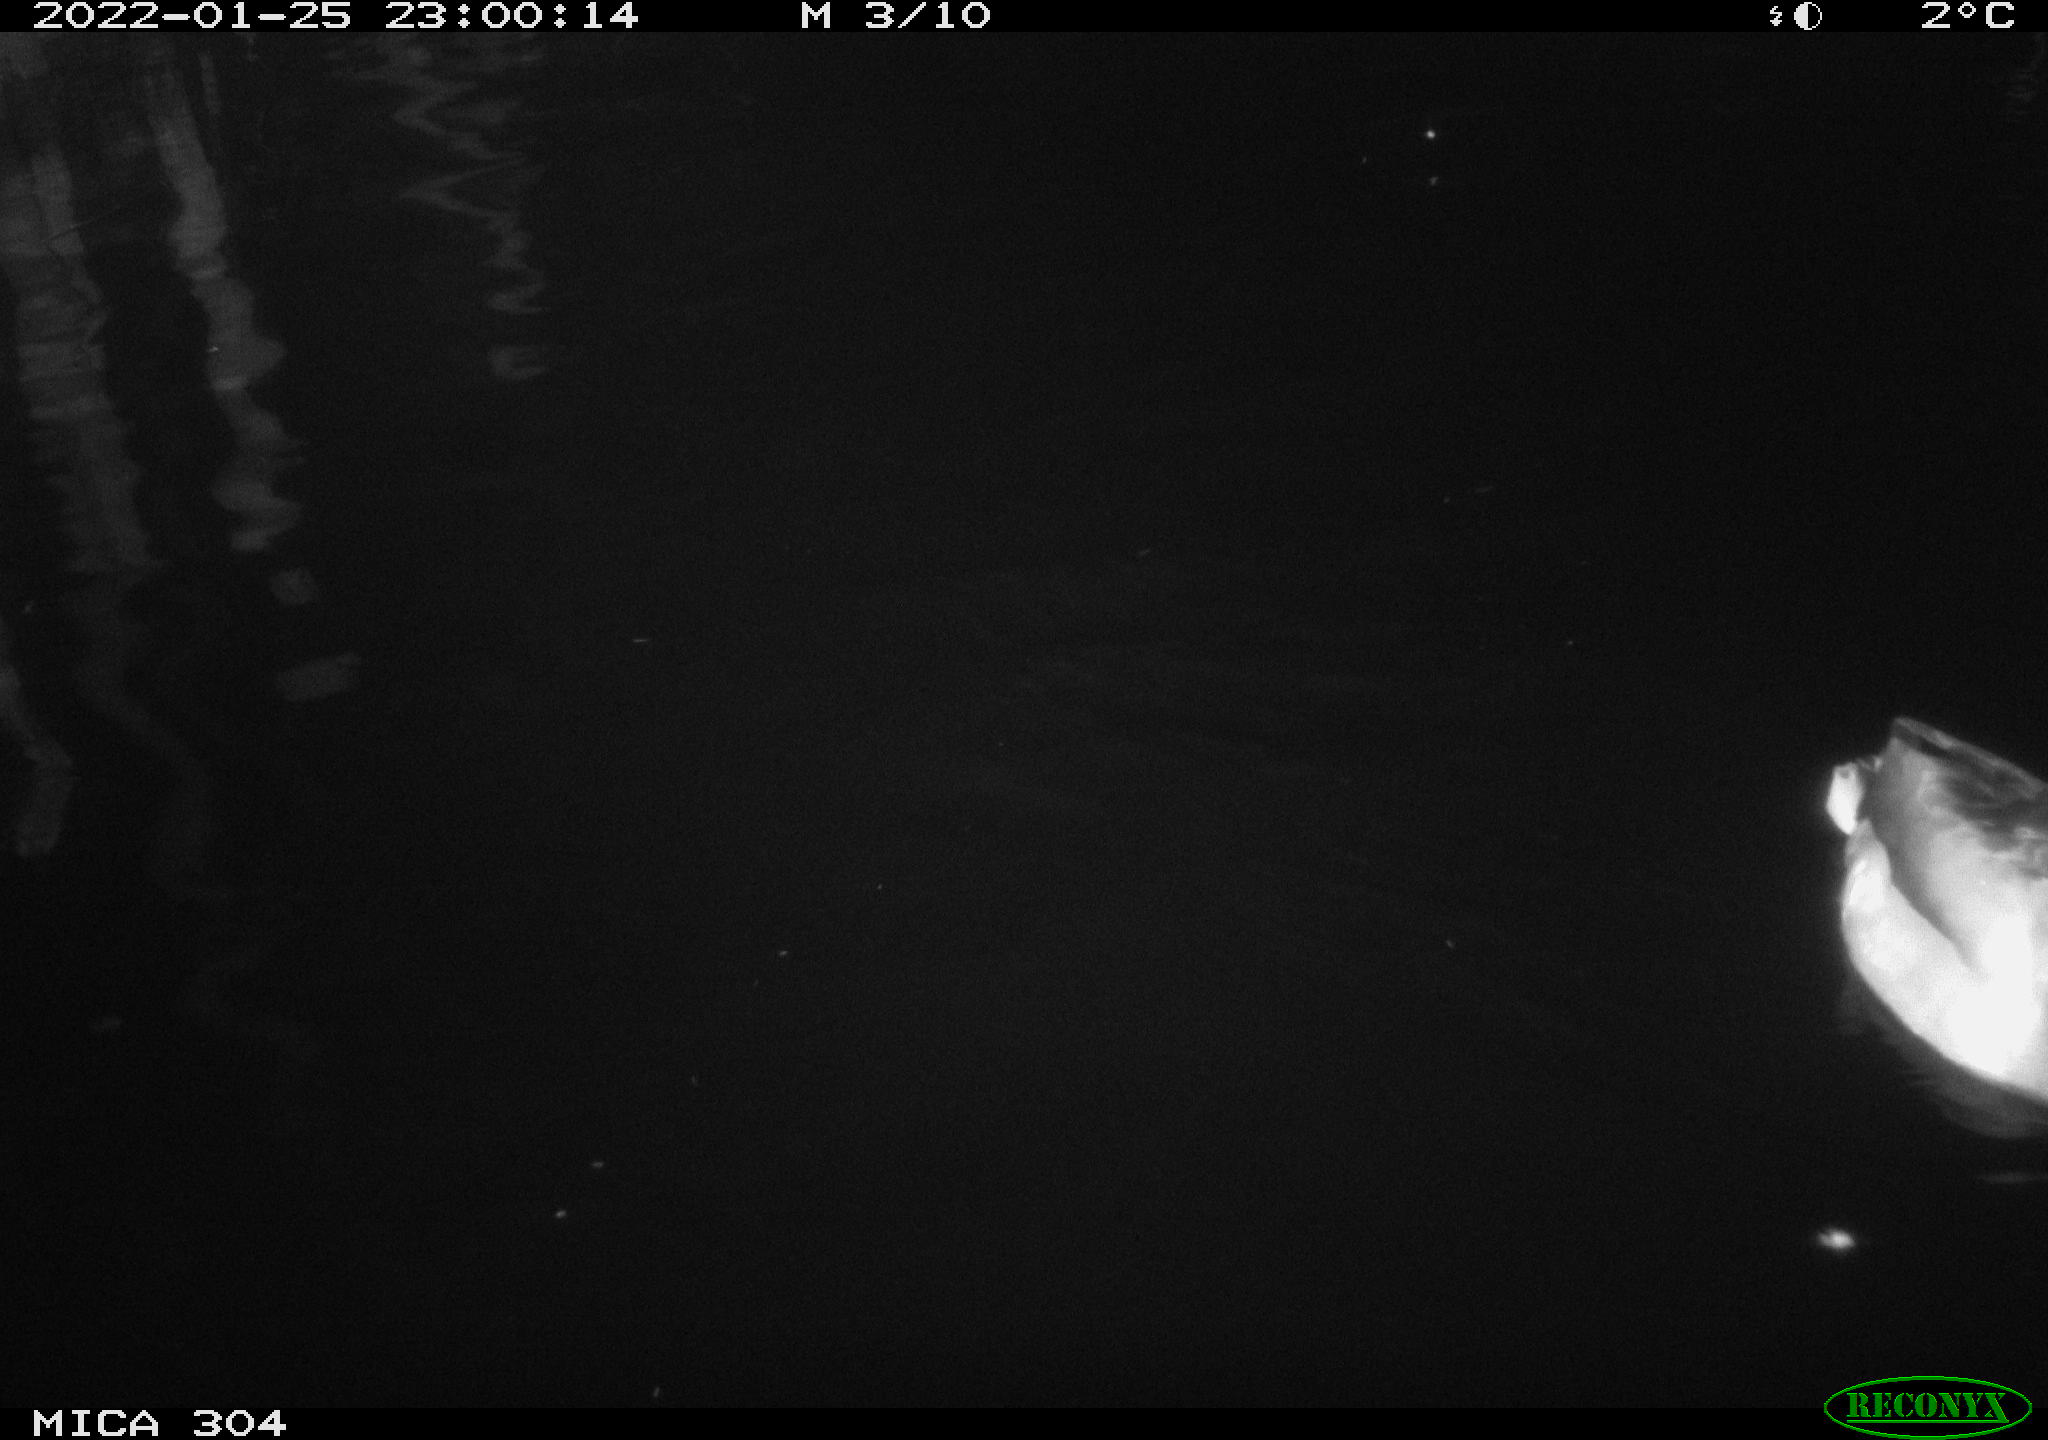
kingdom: Animalia
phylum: Chordata
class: Aves
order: Anseriformes
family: Anatidae
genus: Anas
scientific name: Anas
